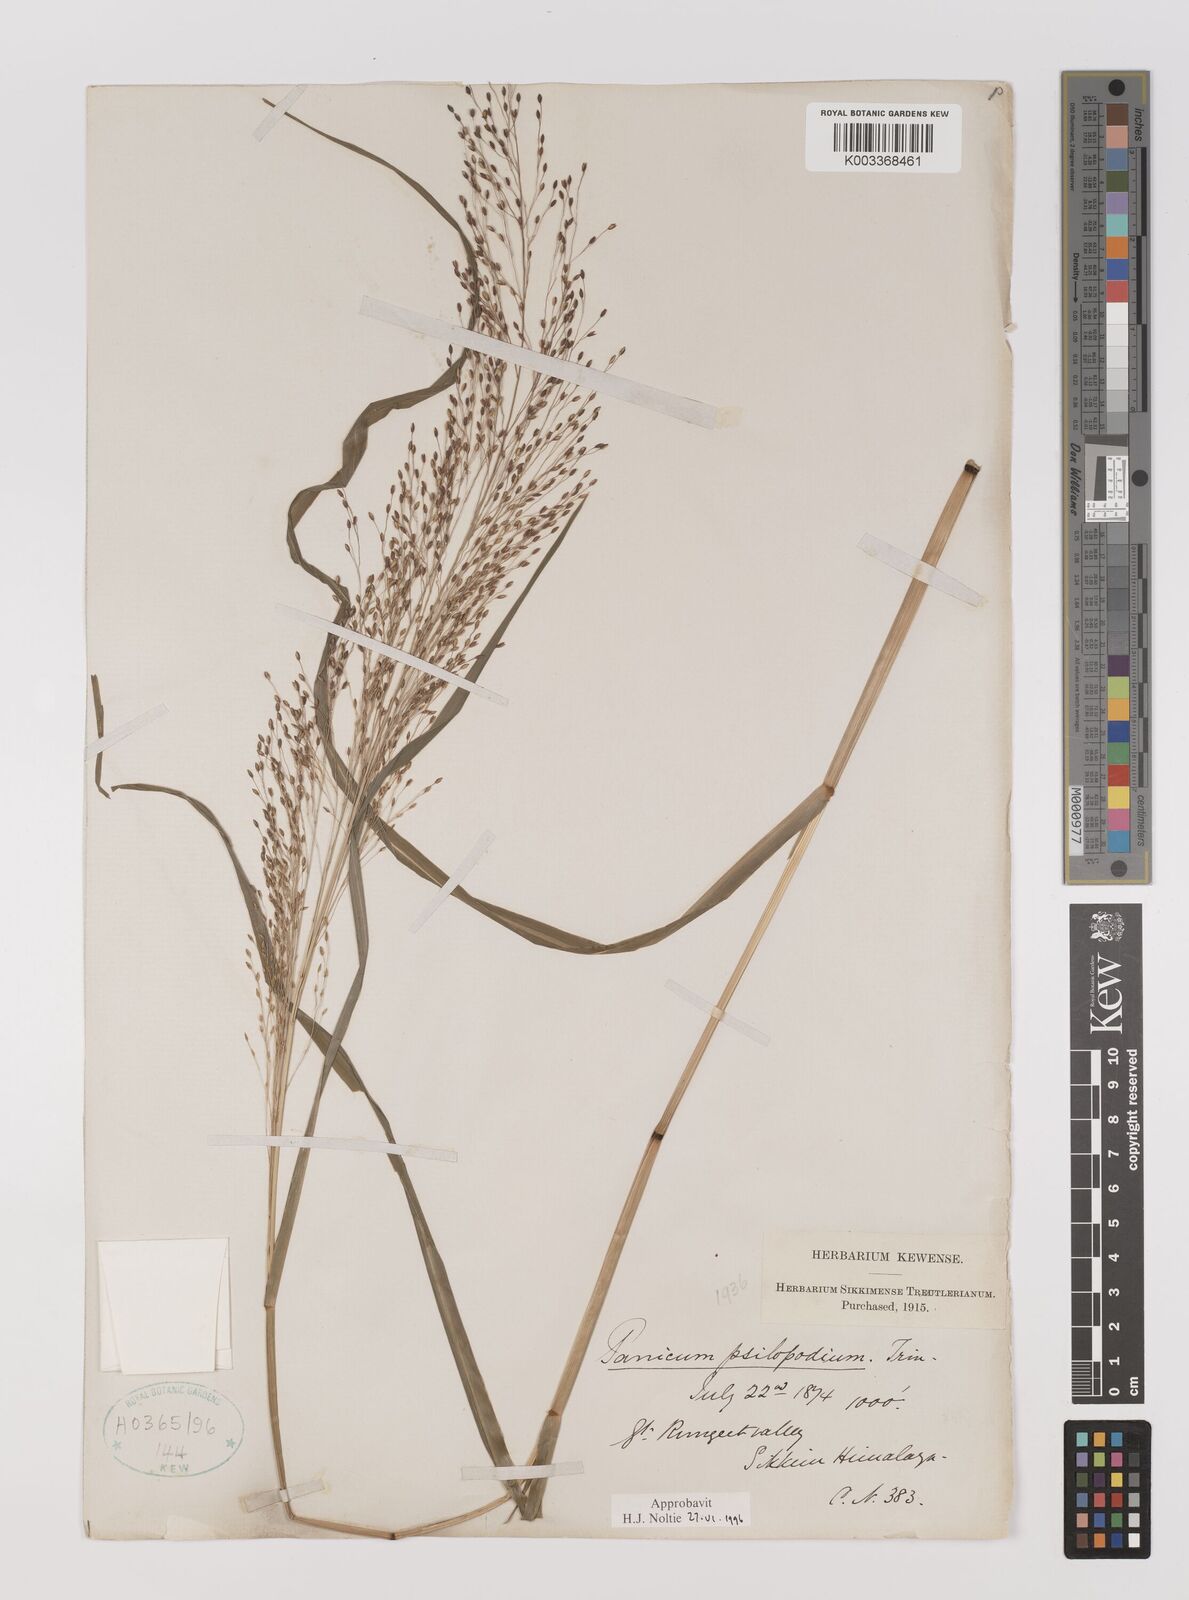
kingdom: Plantae
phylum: Tracheophyta
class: Liliopsida
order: Poales
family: Poaceae
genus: Panicum
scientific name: Panicum sumatrense
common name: Little millet
